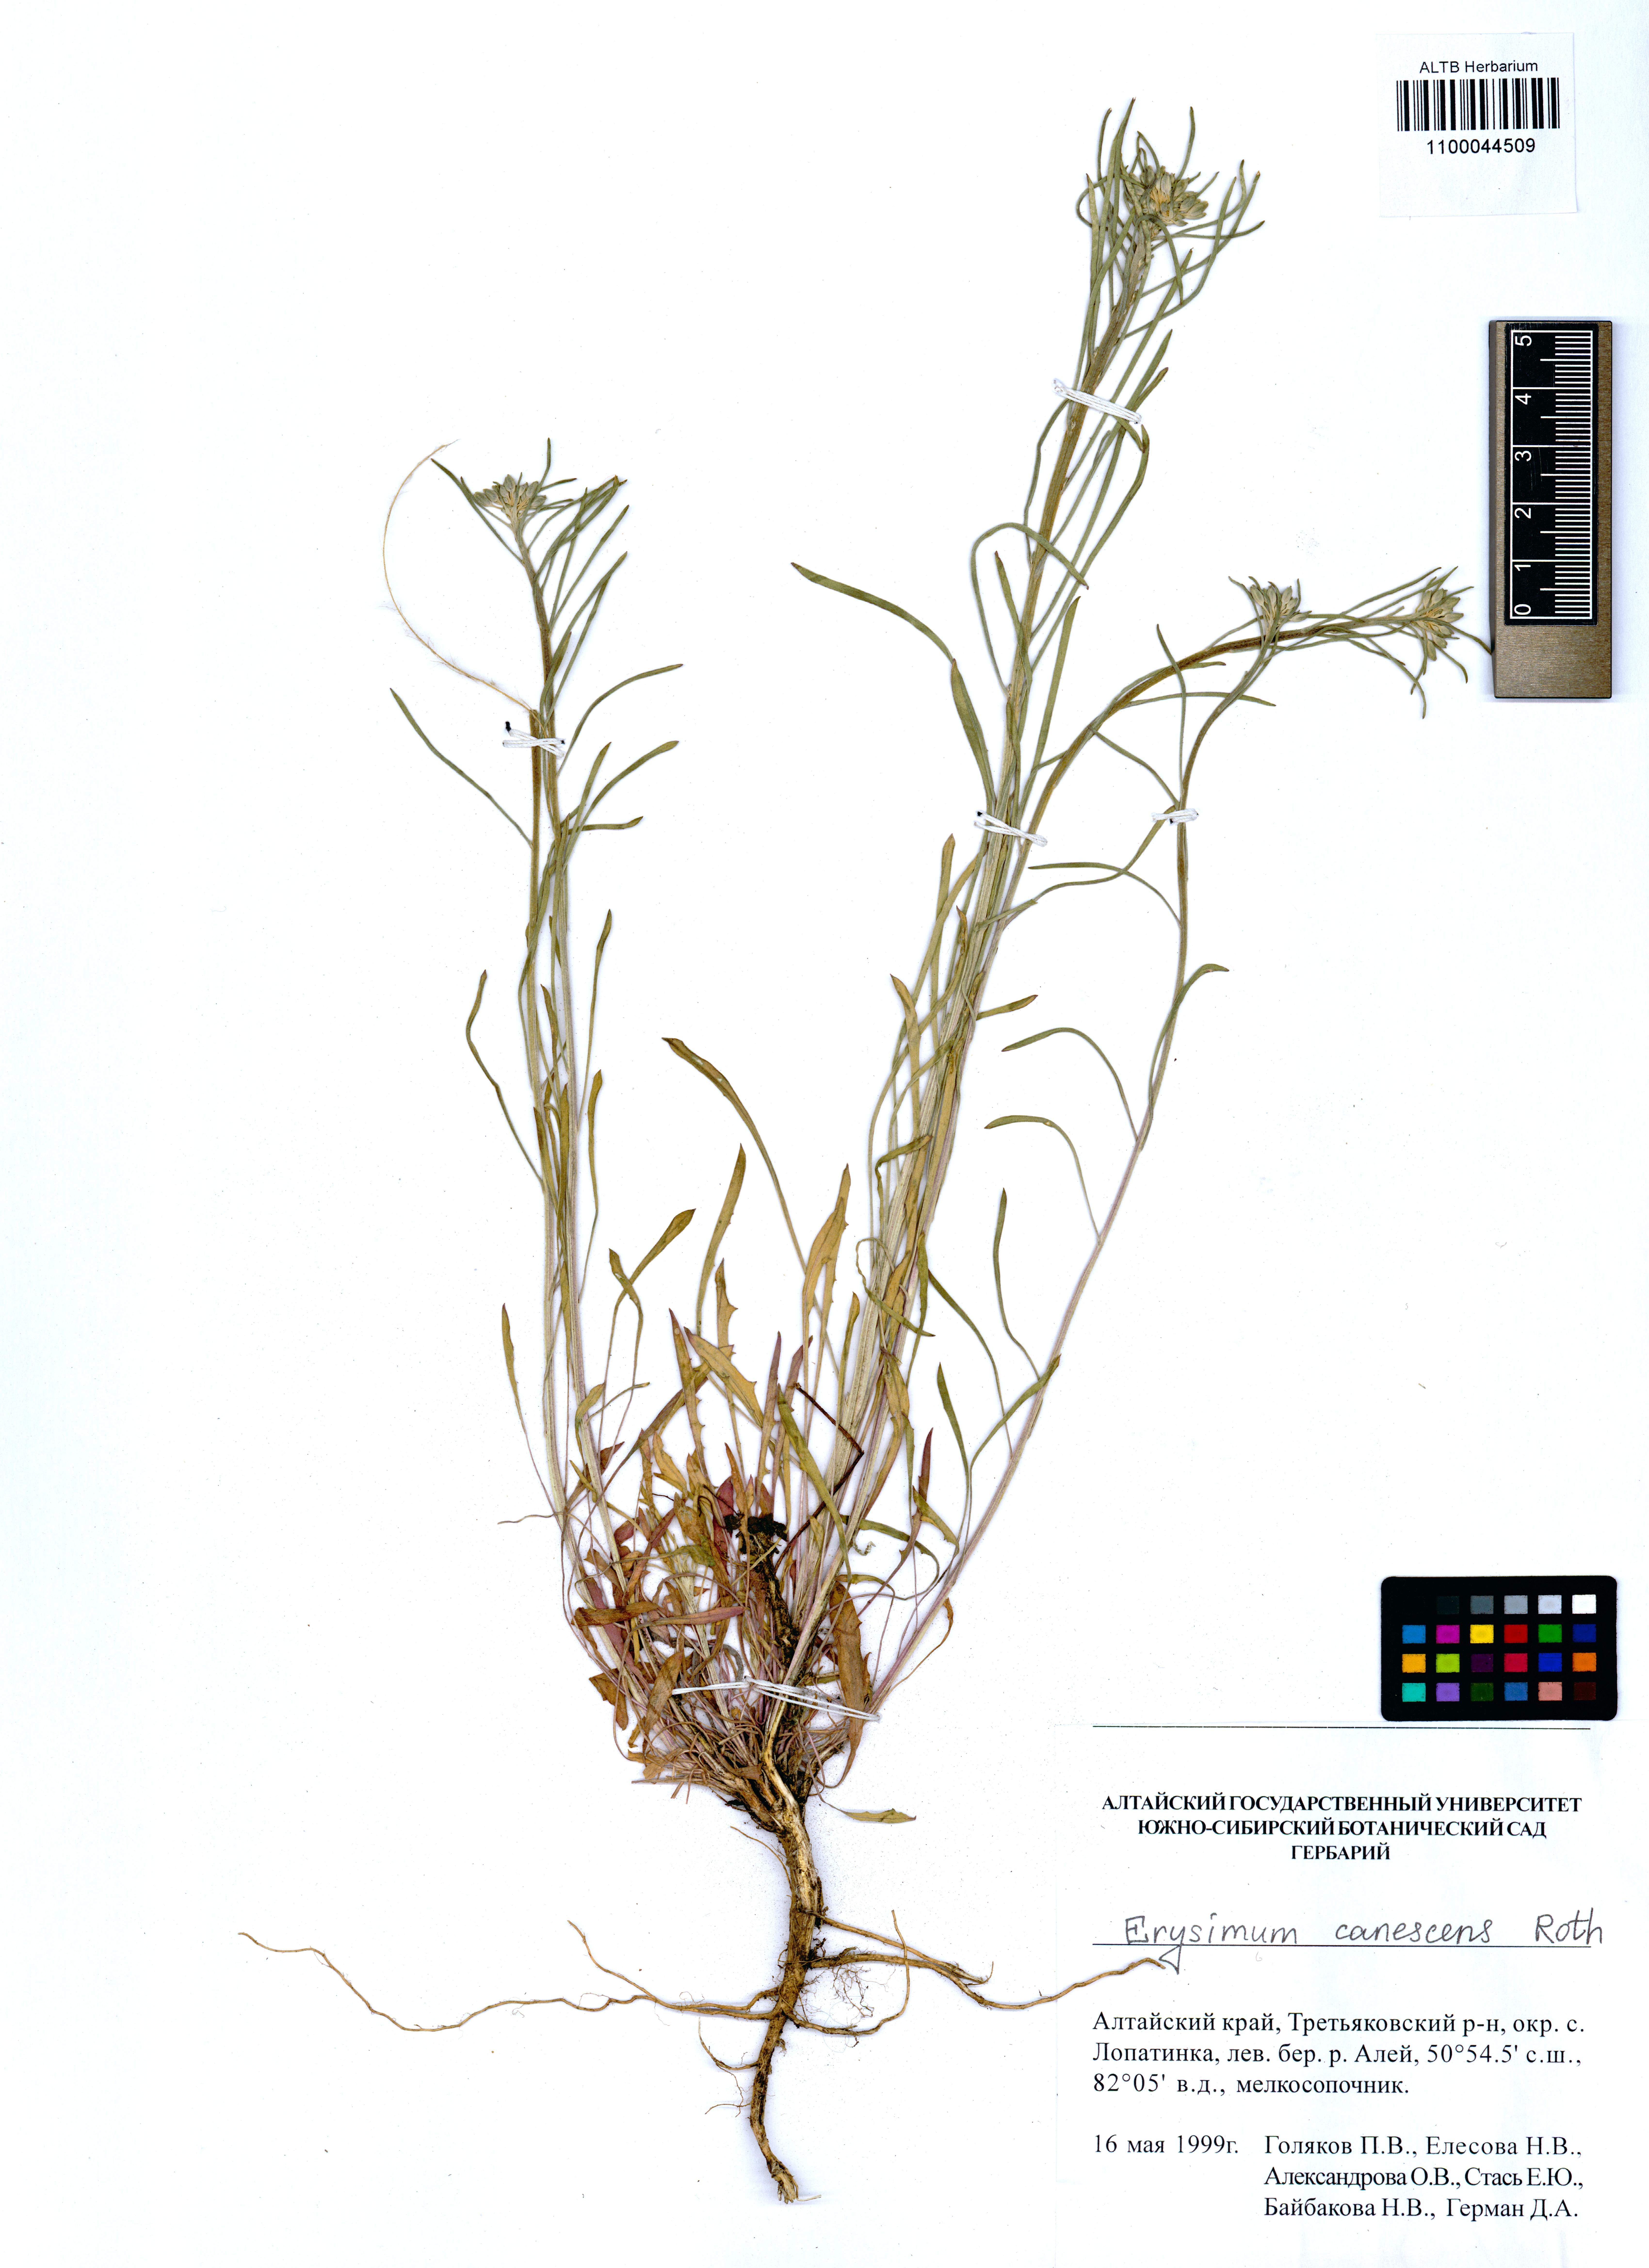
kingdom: Plantae
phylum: Tracheophyta
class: Magnoliopsida
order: Brassicales
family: Brassicaceae
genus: Erysimum
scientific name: Erysimum canescens
